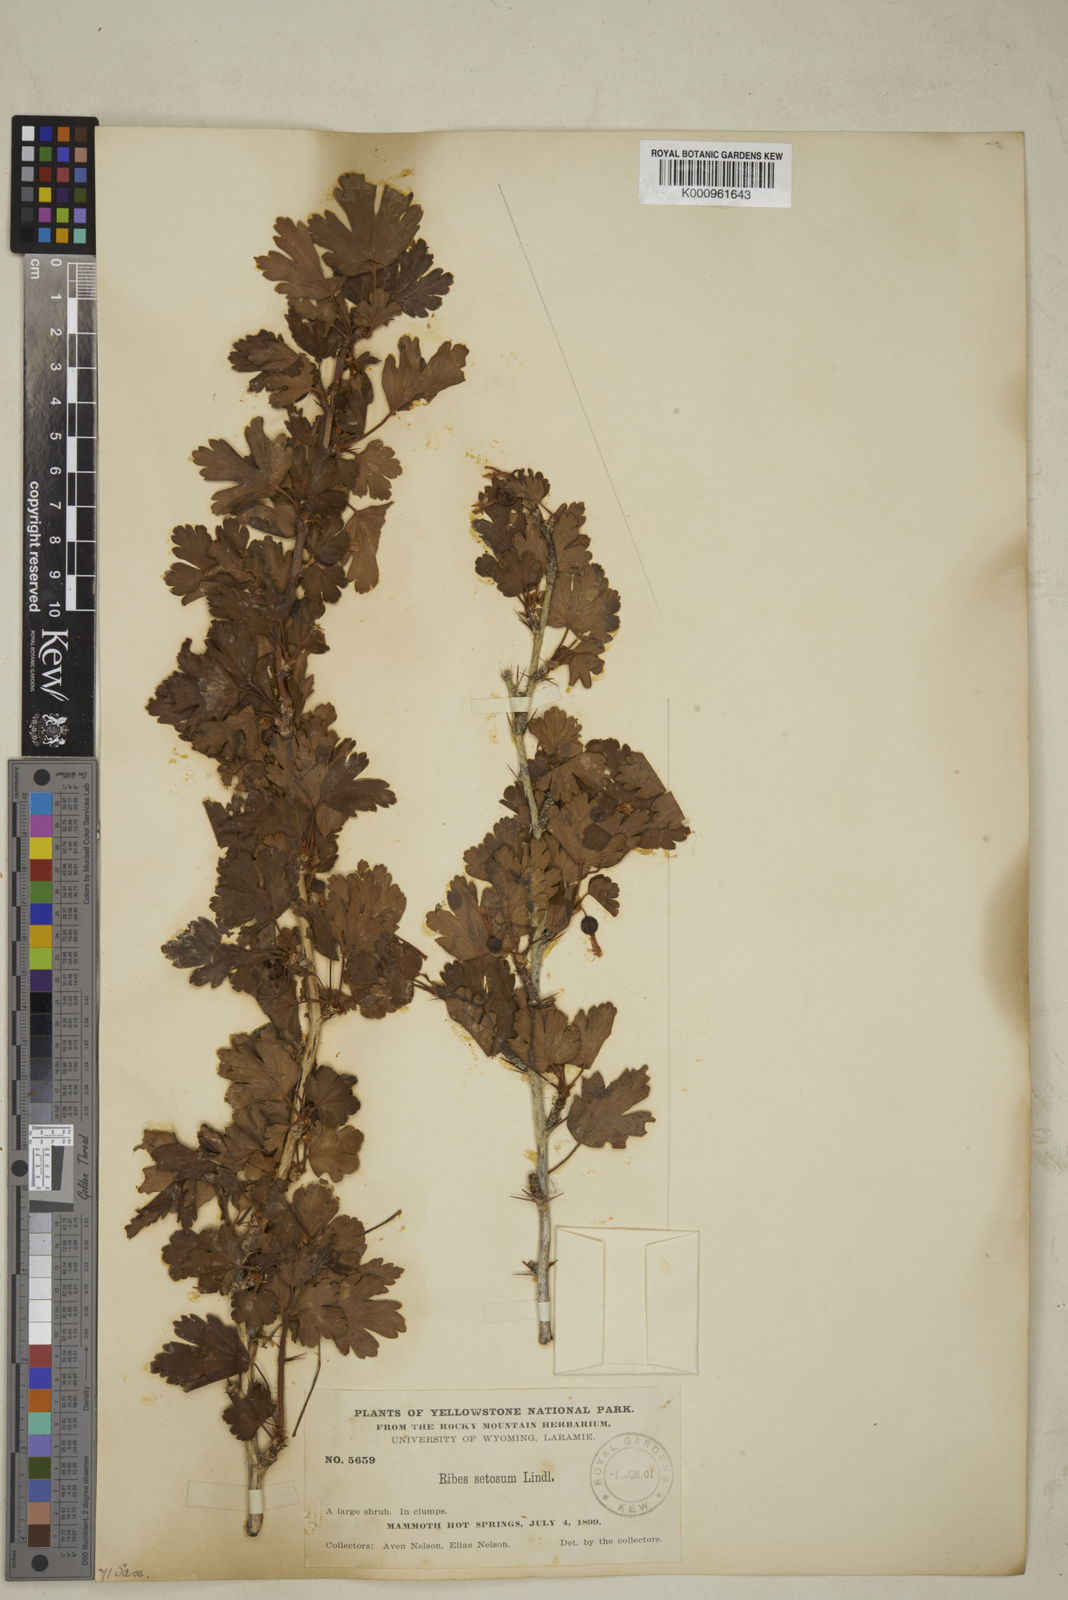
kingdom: Plantae
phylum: Tracheophyta
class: Magnoliopsida
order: Saxifragales
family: Grossulariaceae
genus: Ribes
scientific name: Ribes oxyacanthoides
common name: Northern gooseberry
